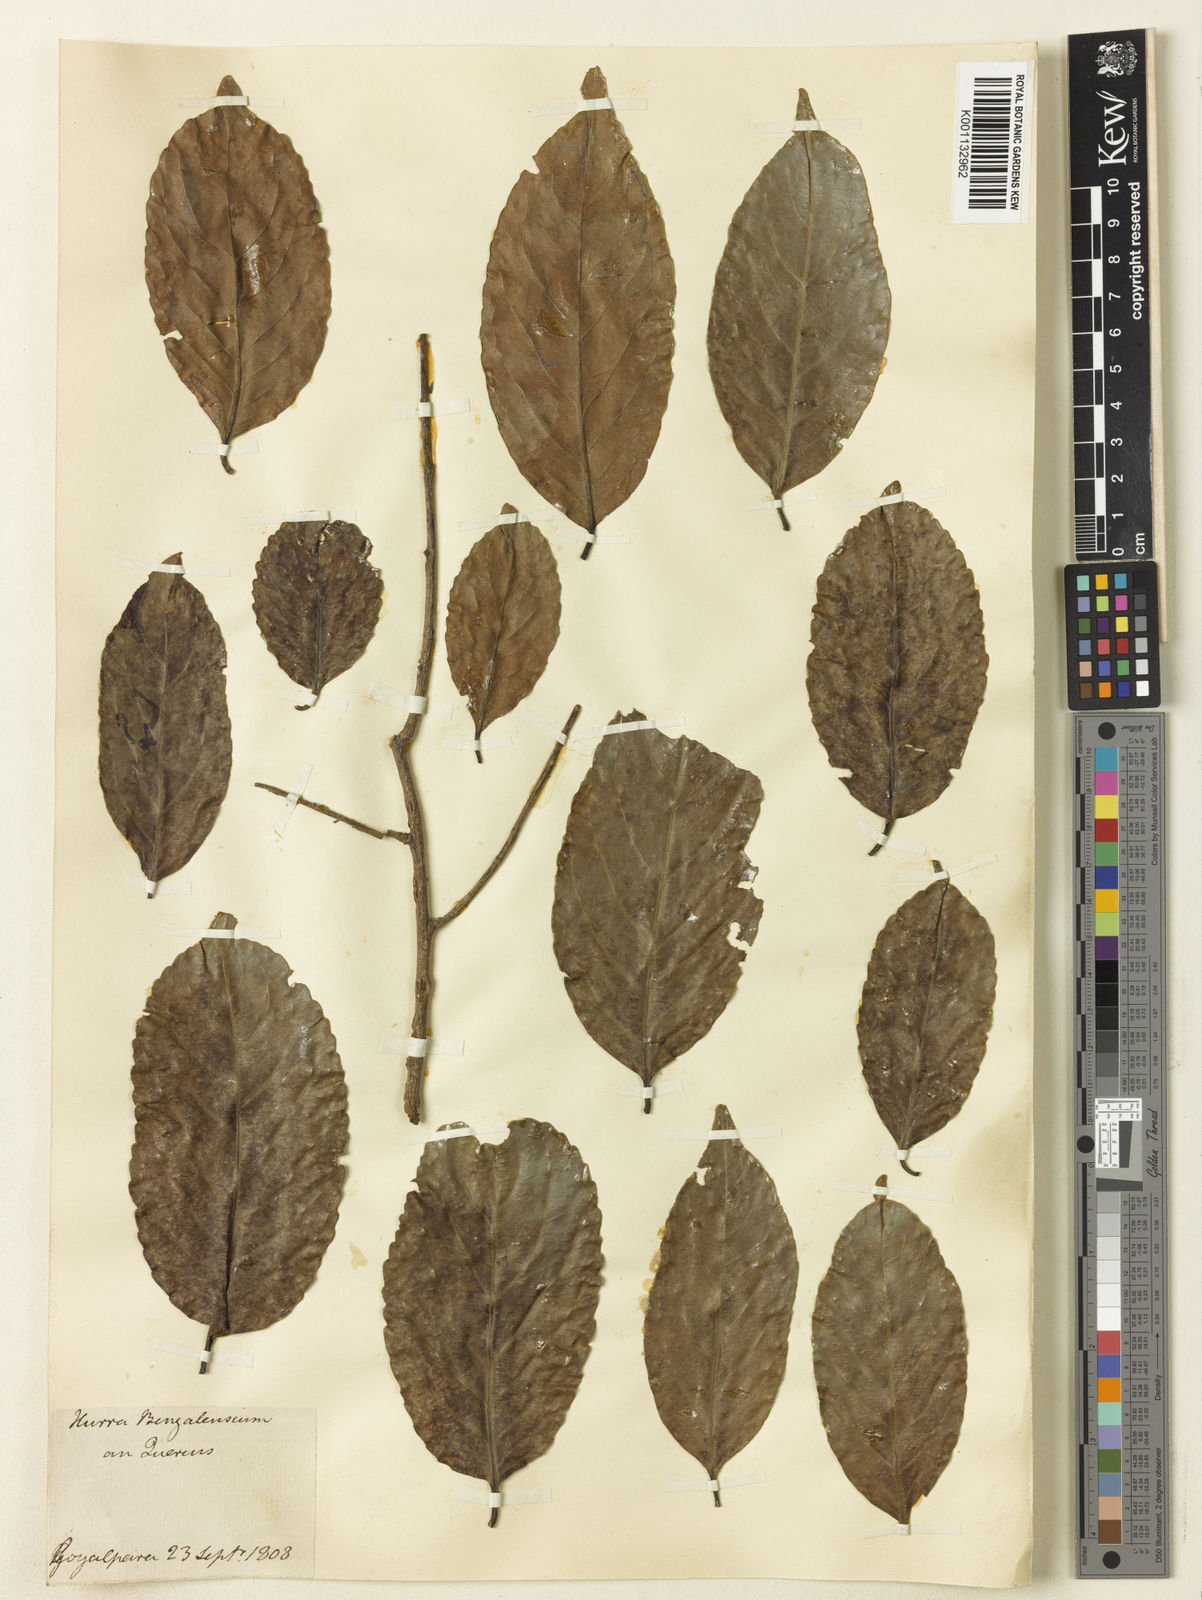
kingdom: Plantae
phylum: Tracheophyta
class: Magnoliopsida
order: Fagales
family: Fagaceae
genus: Quercus
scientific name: Quercus
